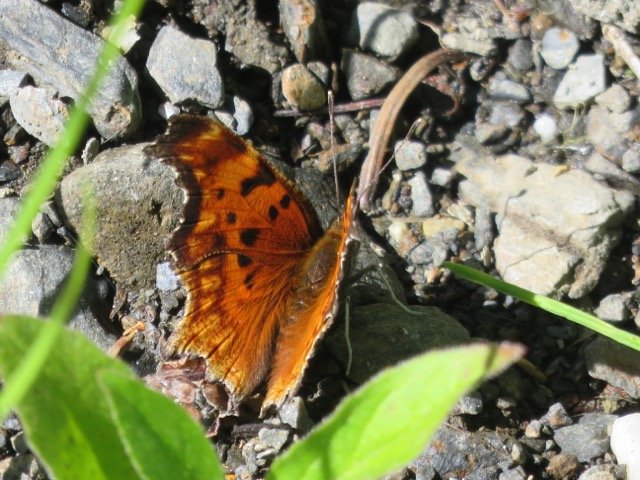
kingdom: Animalia
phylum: Arthropoda
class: Insecta
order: Lepidoptera
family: Nymphalidae
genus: Polygonia
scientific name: Polygonia gracilis
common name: Hoary Comma
